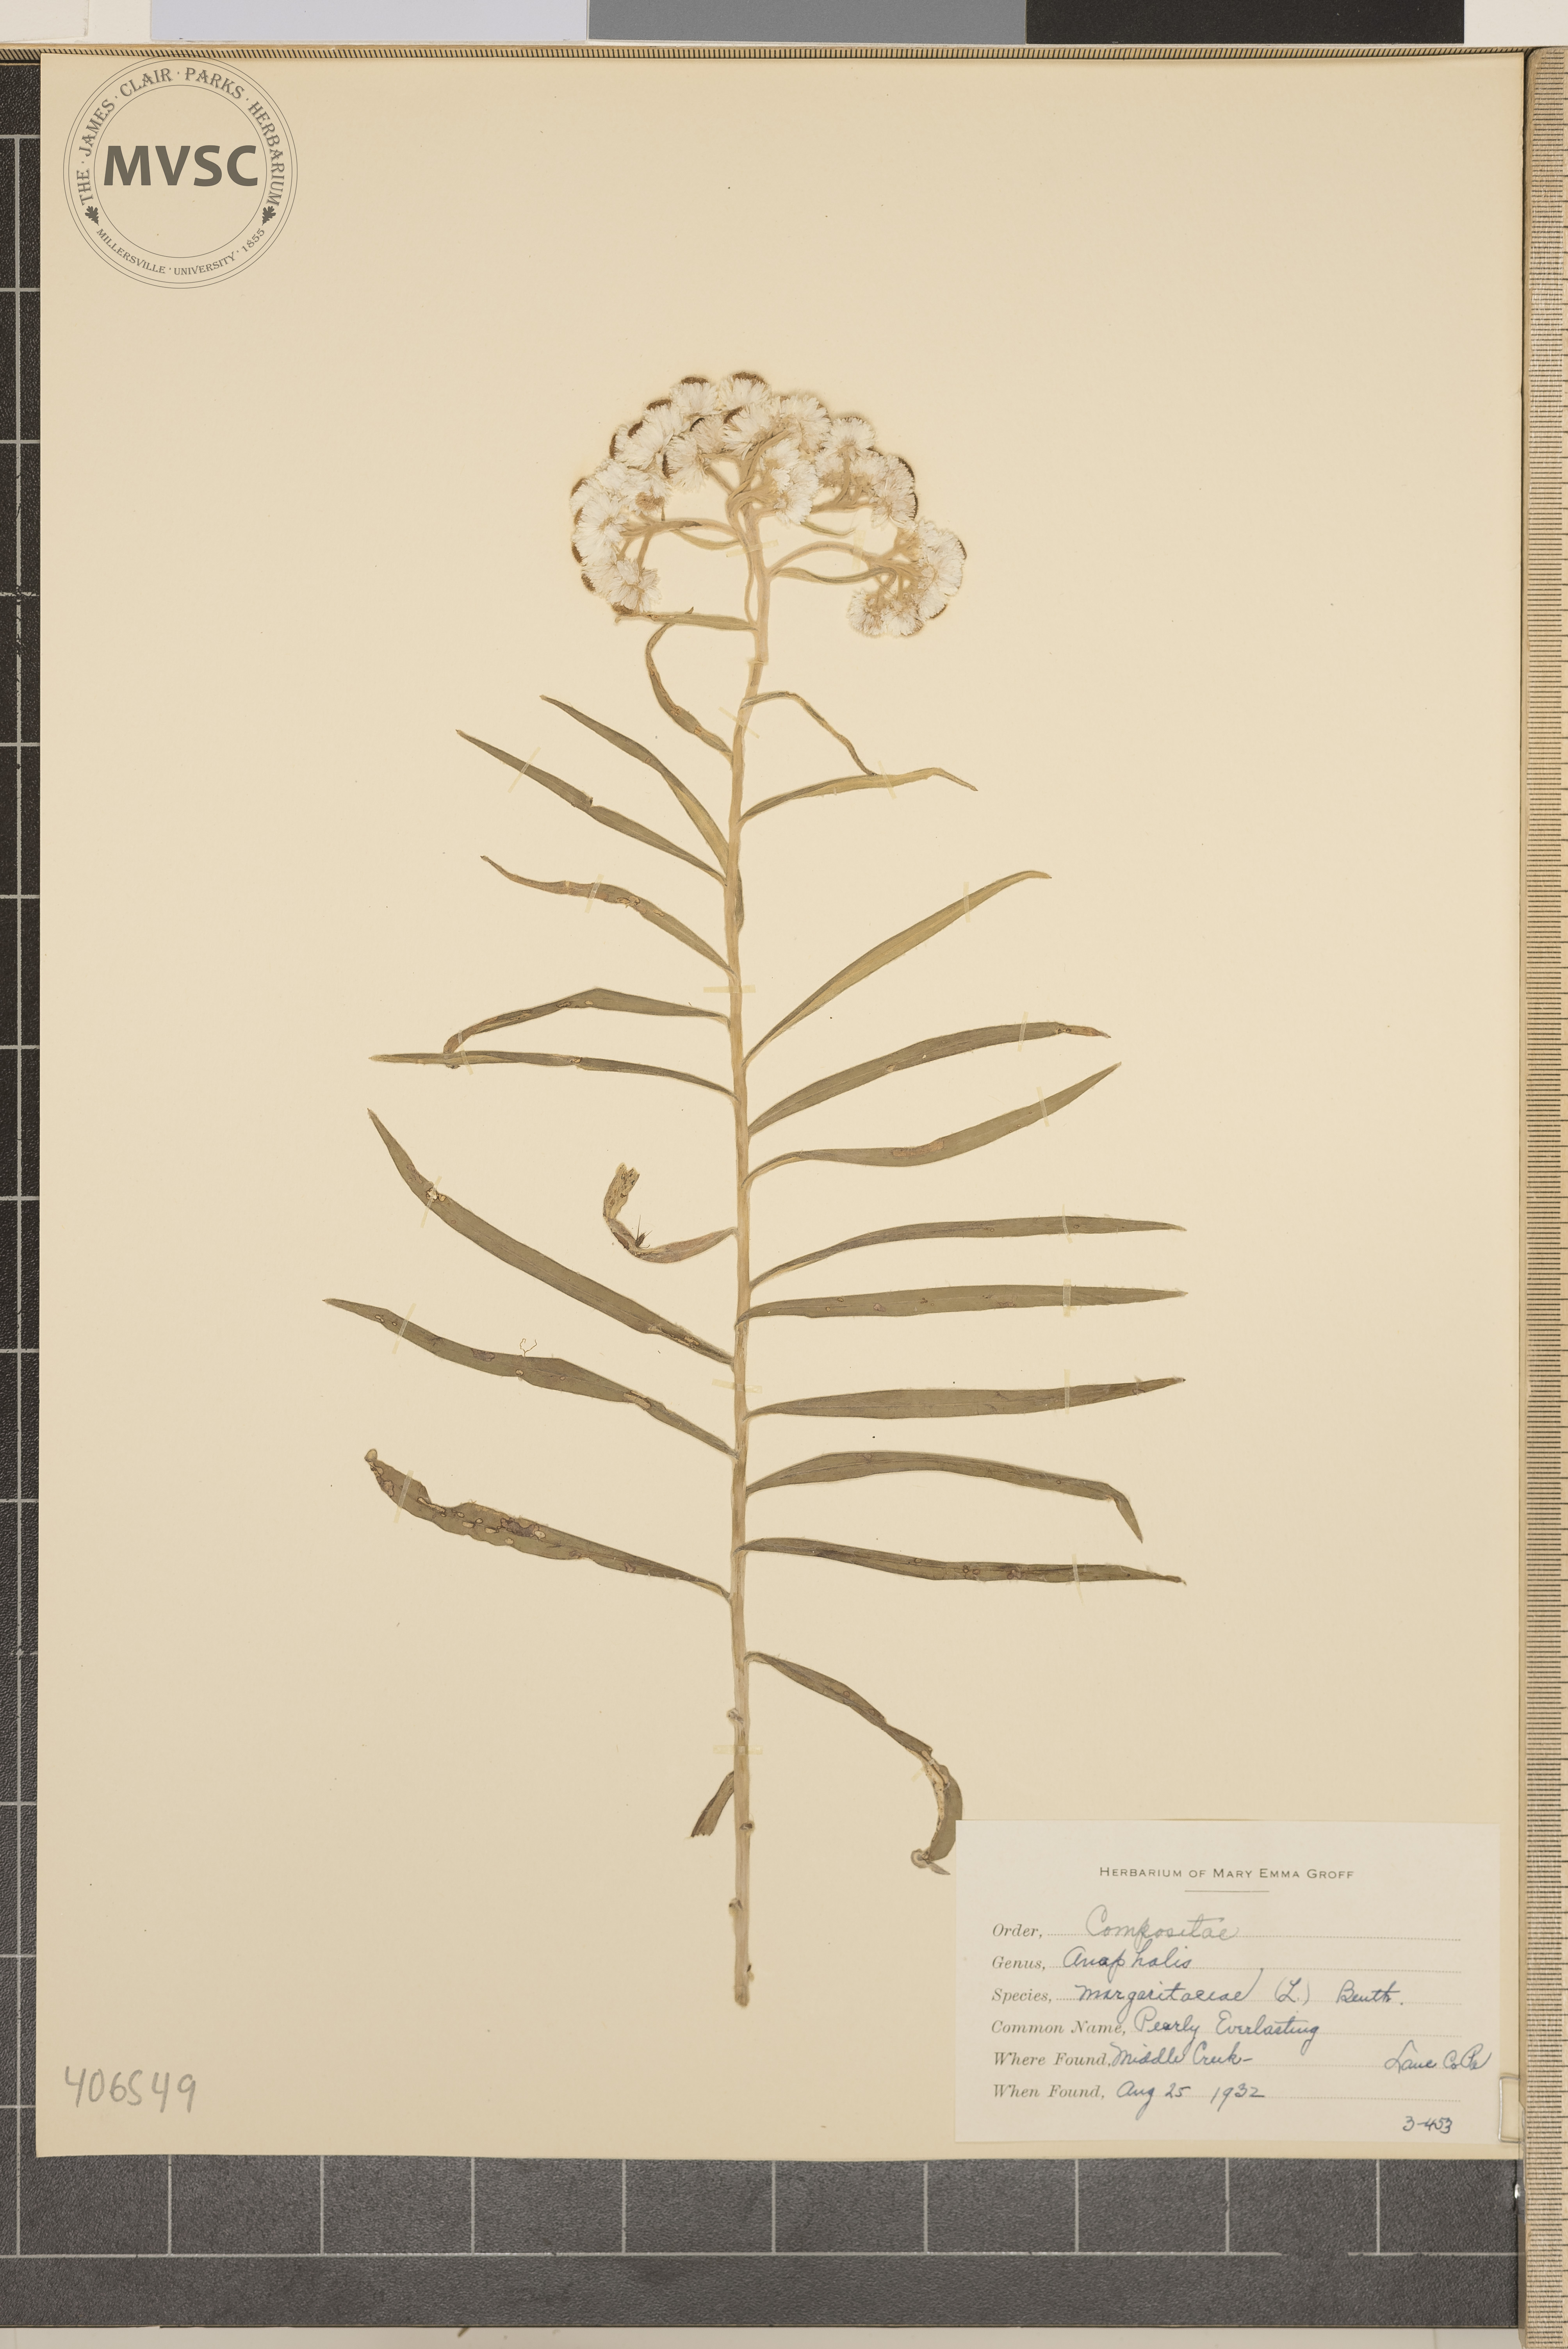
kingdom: Plantae
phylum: Tracheophyta
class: Magnoliopsida
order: Asterales
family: Asteraceae
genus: Anaphalis
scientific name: Anaphalis margaritacea
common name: Pearly Everlasting
